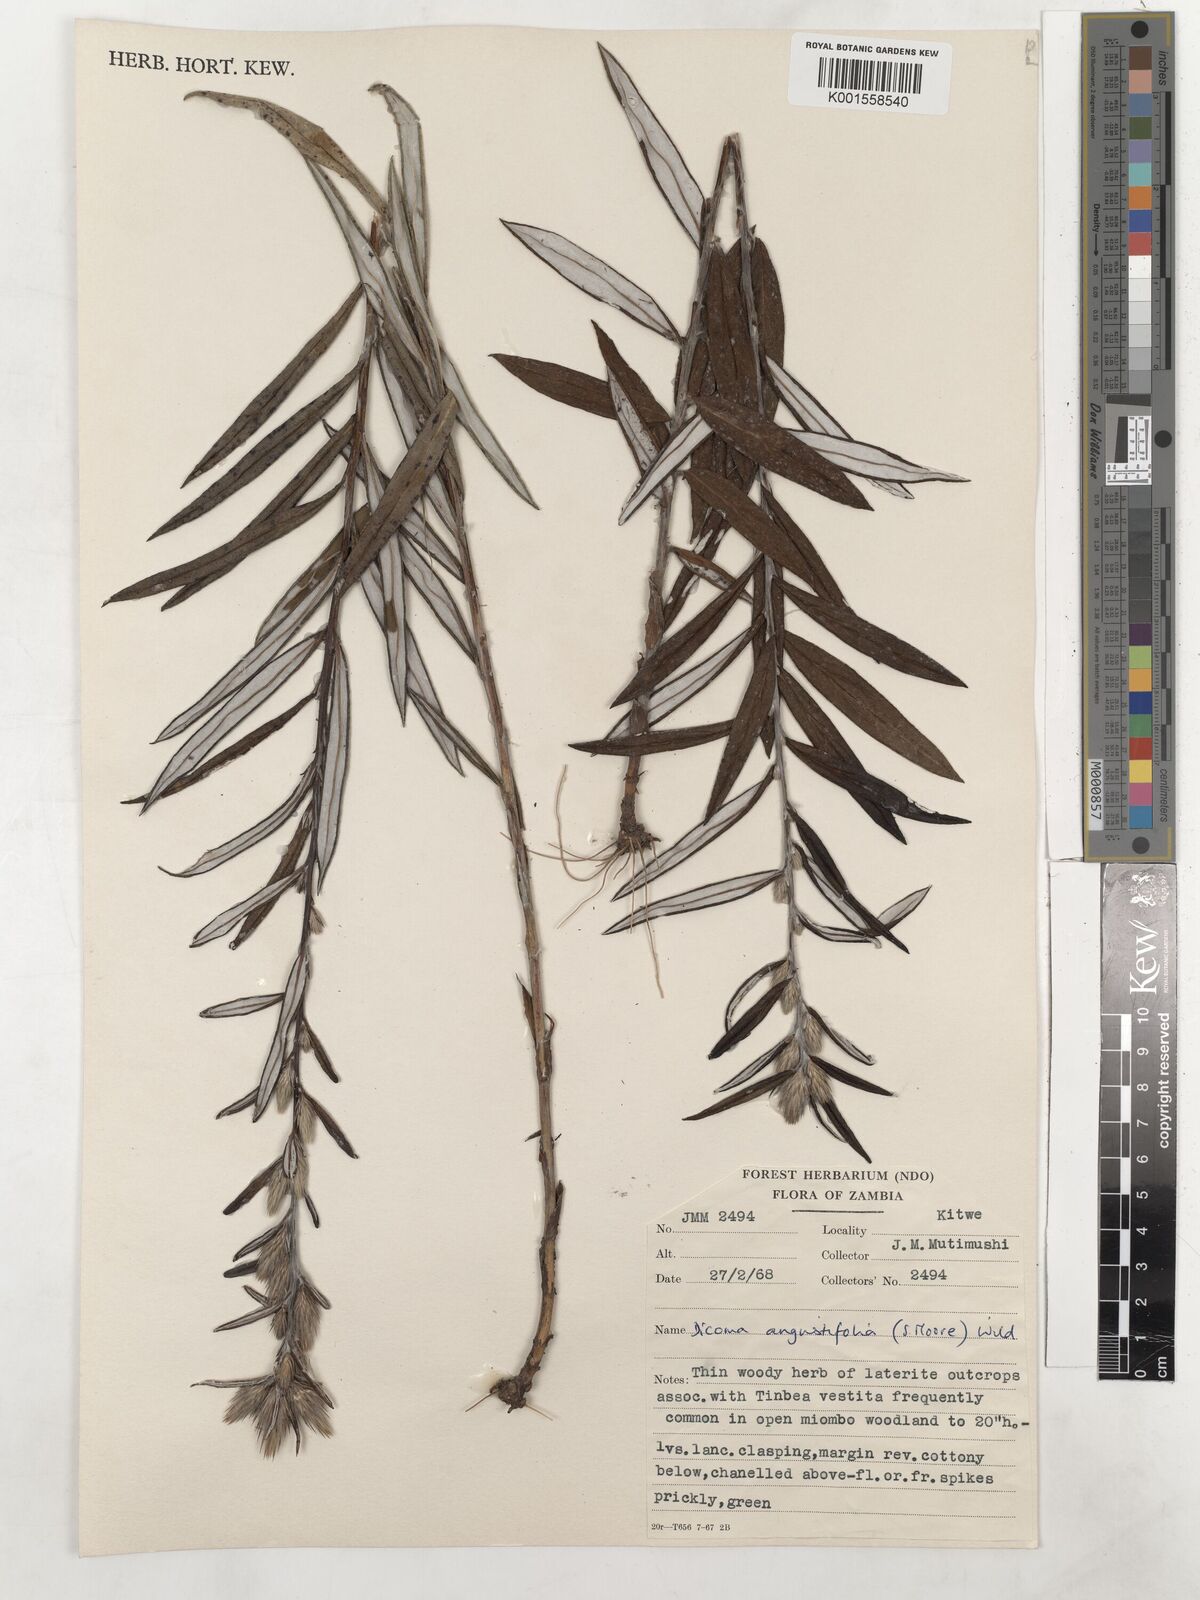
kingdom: Plantae
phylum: Tracheophyta
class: Magnoliopsida
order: Asterales
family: Asteraceae
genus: Macledium
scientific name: Macledium poggei
